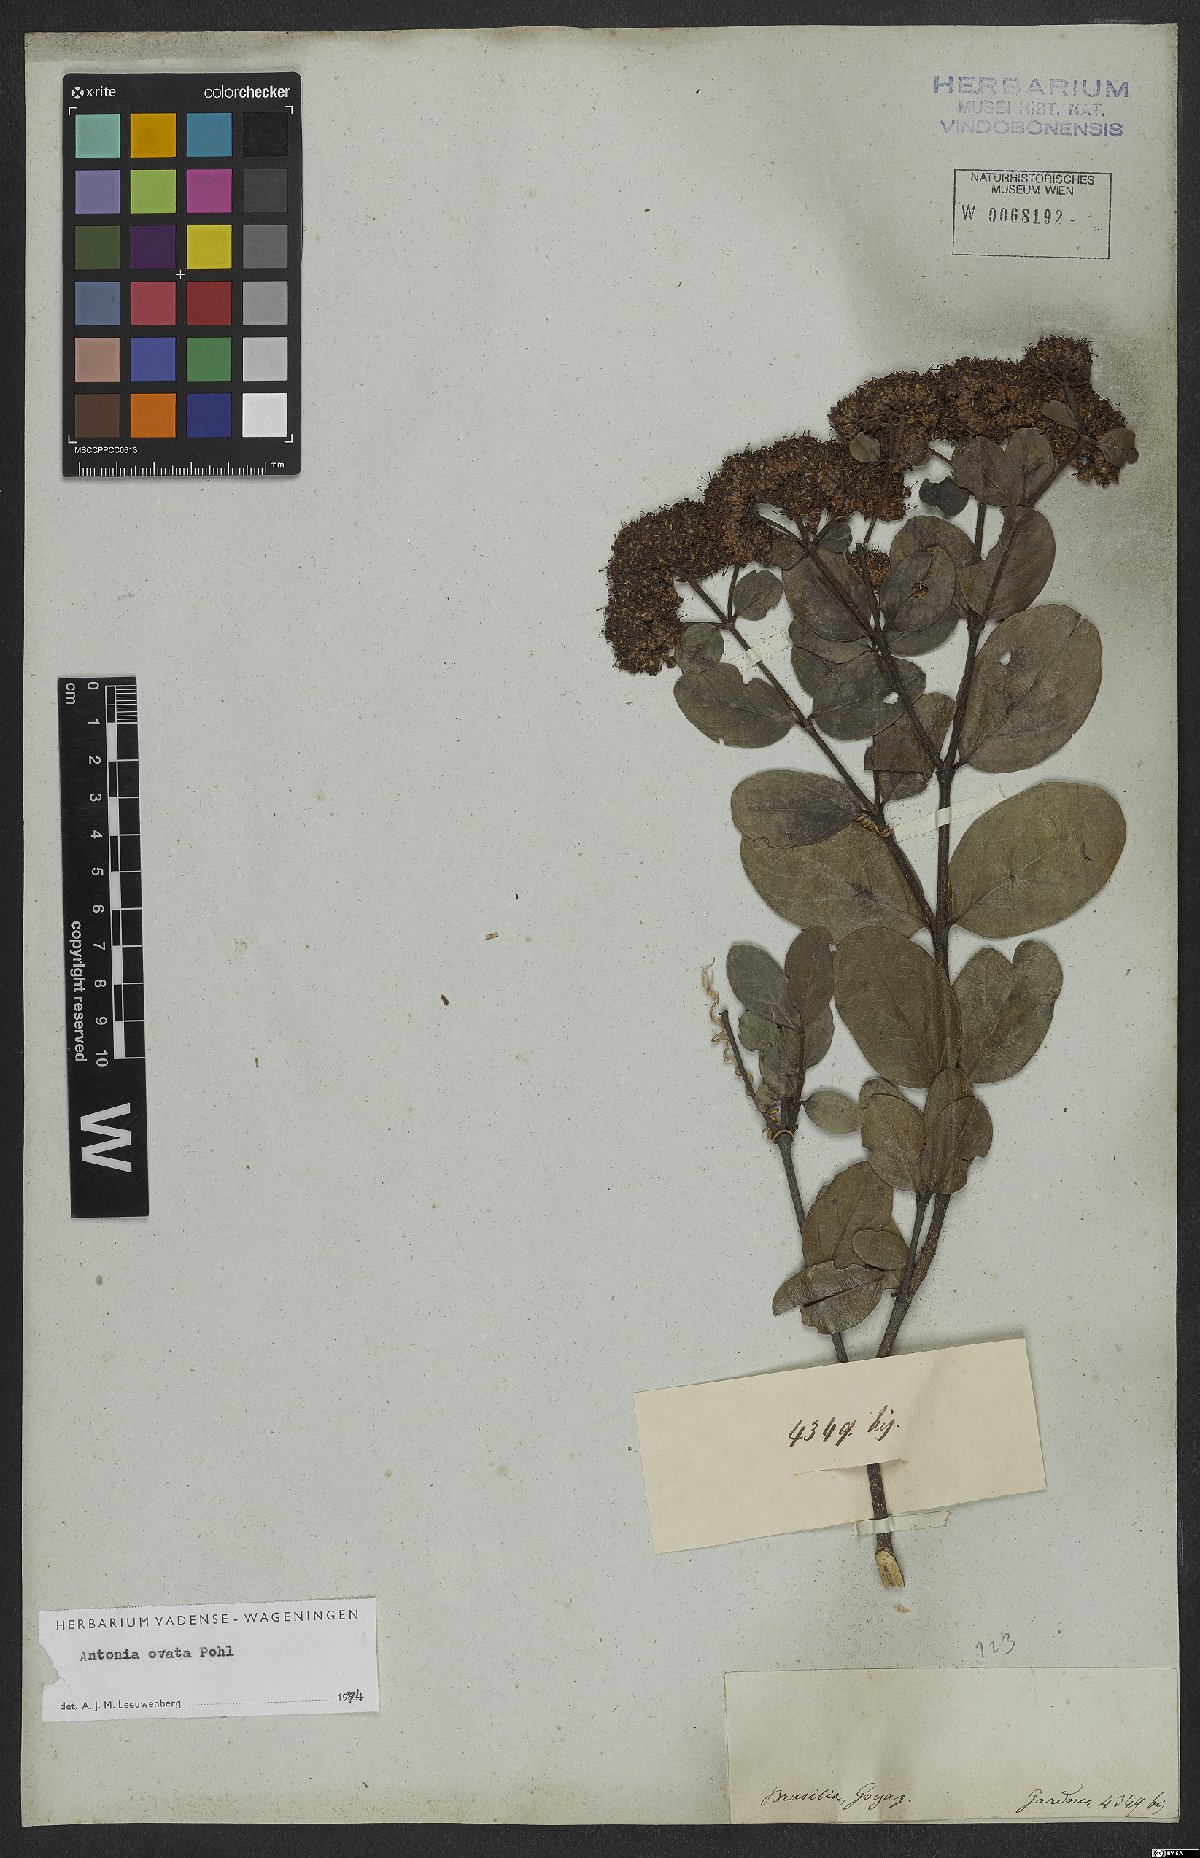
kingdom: Plantae
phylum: Tracheophyta
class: Magnoliopsida
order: Gentianales
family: Loganiaceae
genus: Antonia
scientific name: Antonia ovata
